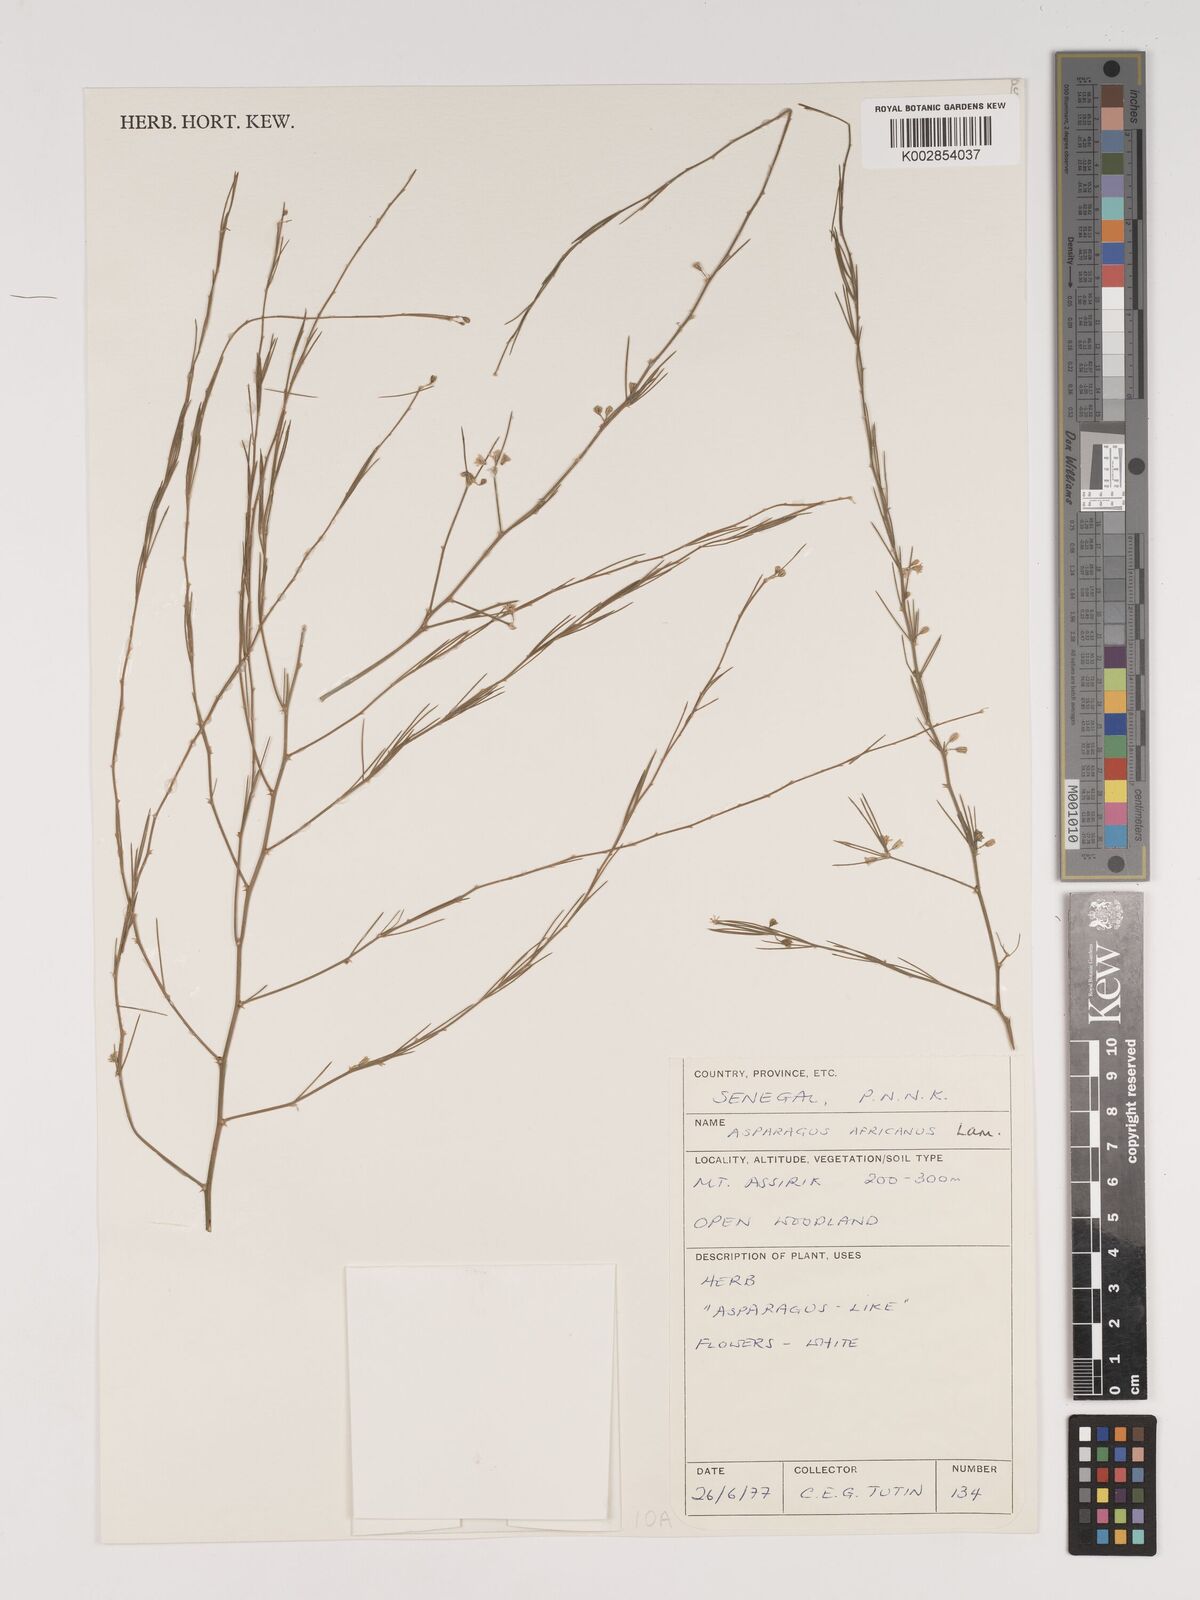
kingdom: Plantae
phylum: Tracheophyta
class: Liliopsida
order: Asparagales
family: Asparagaceae
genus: Asparagus
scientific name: Asparagus africanus
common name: Asparagus-fern
